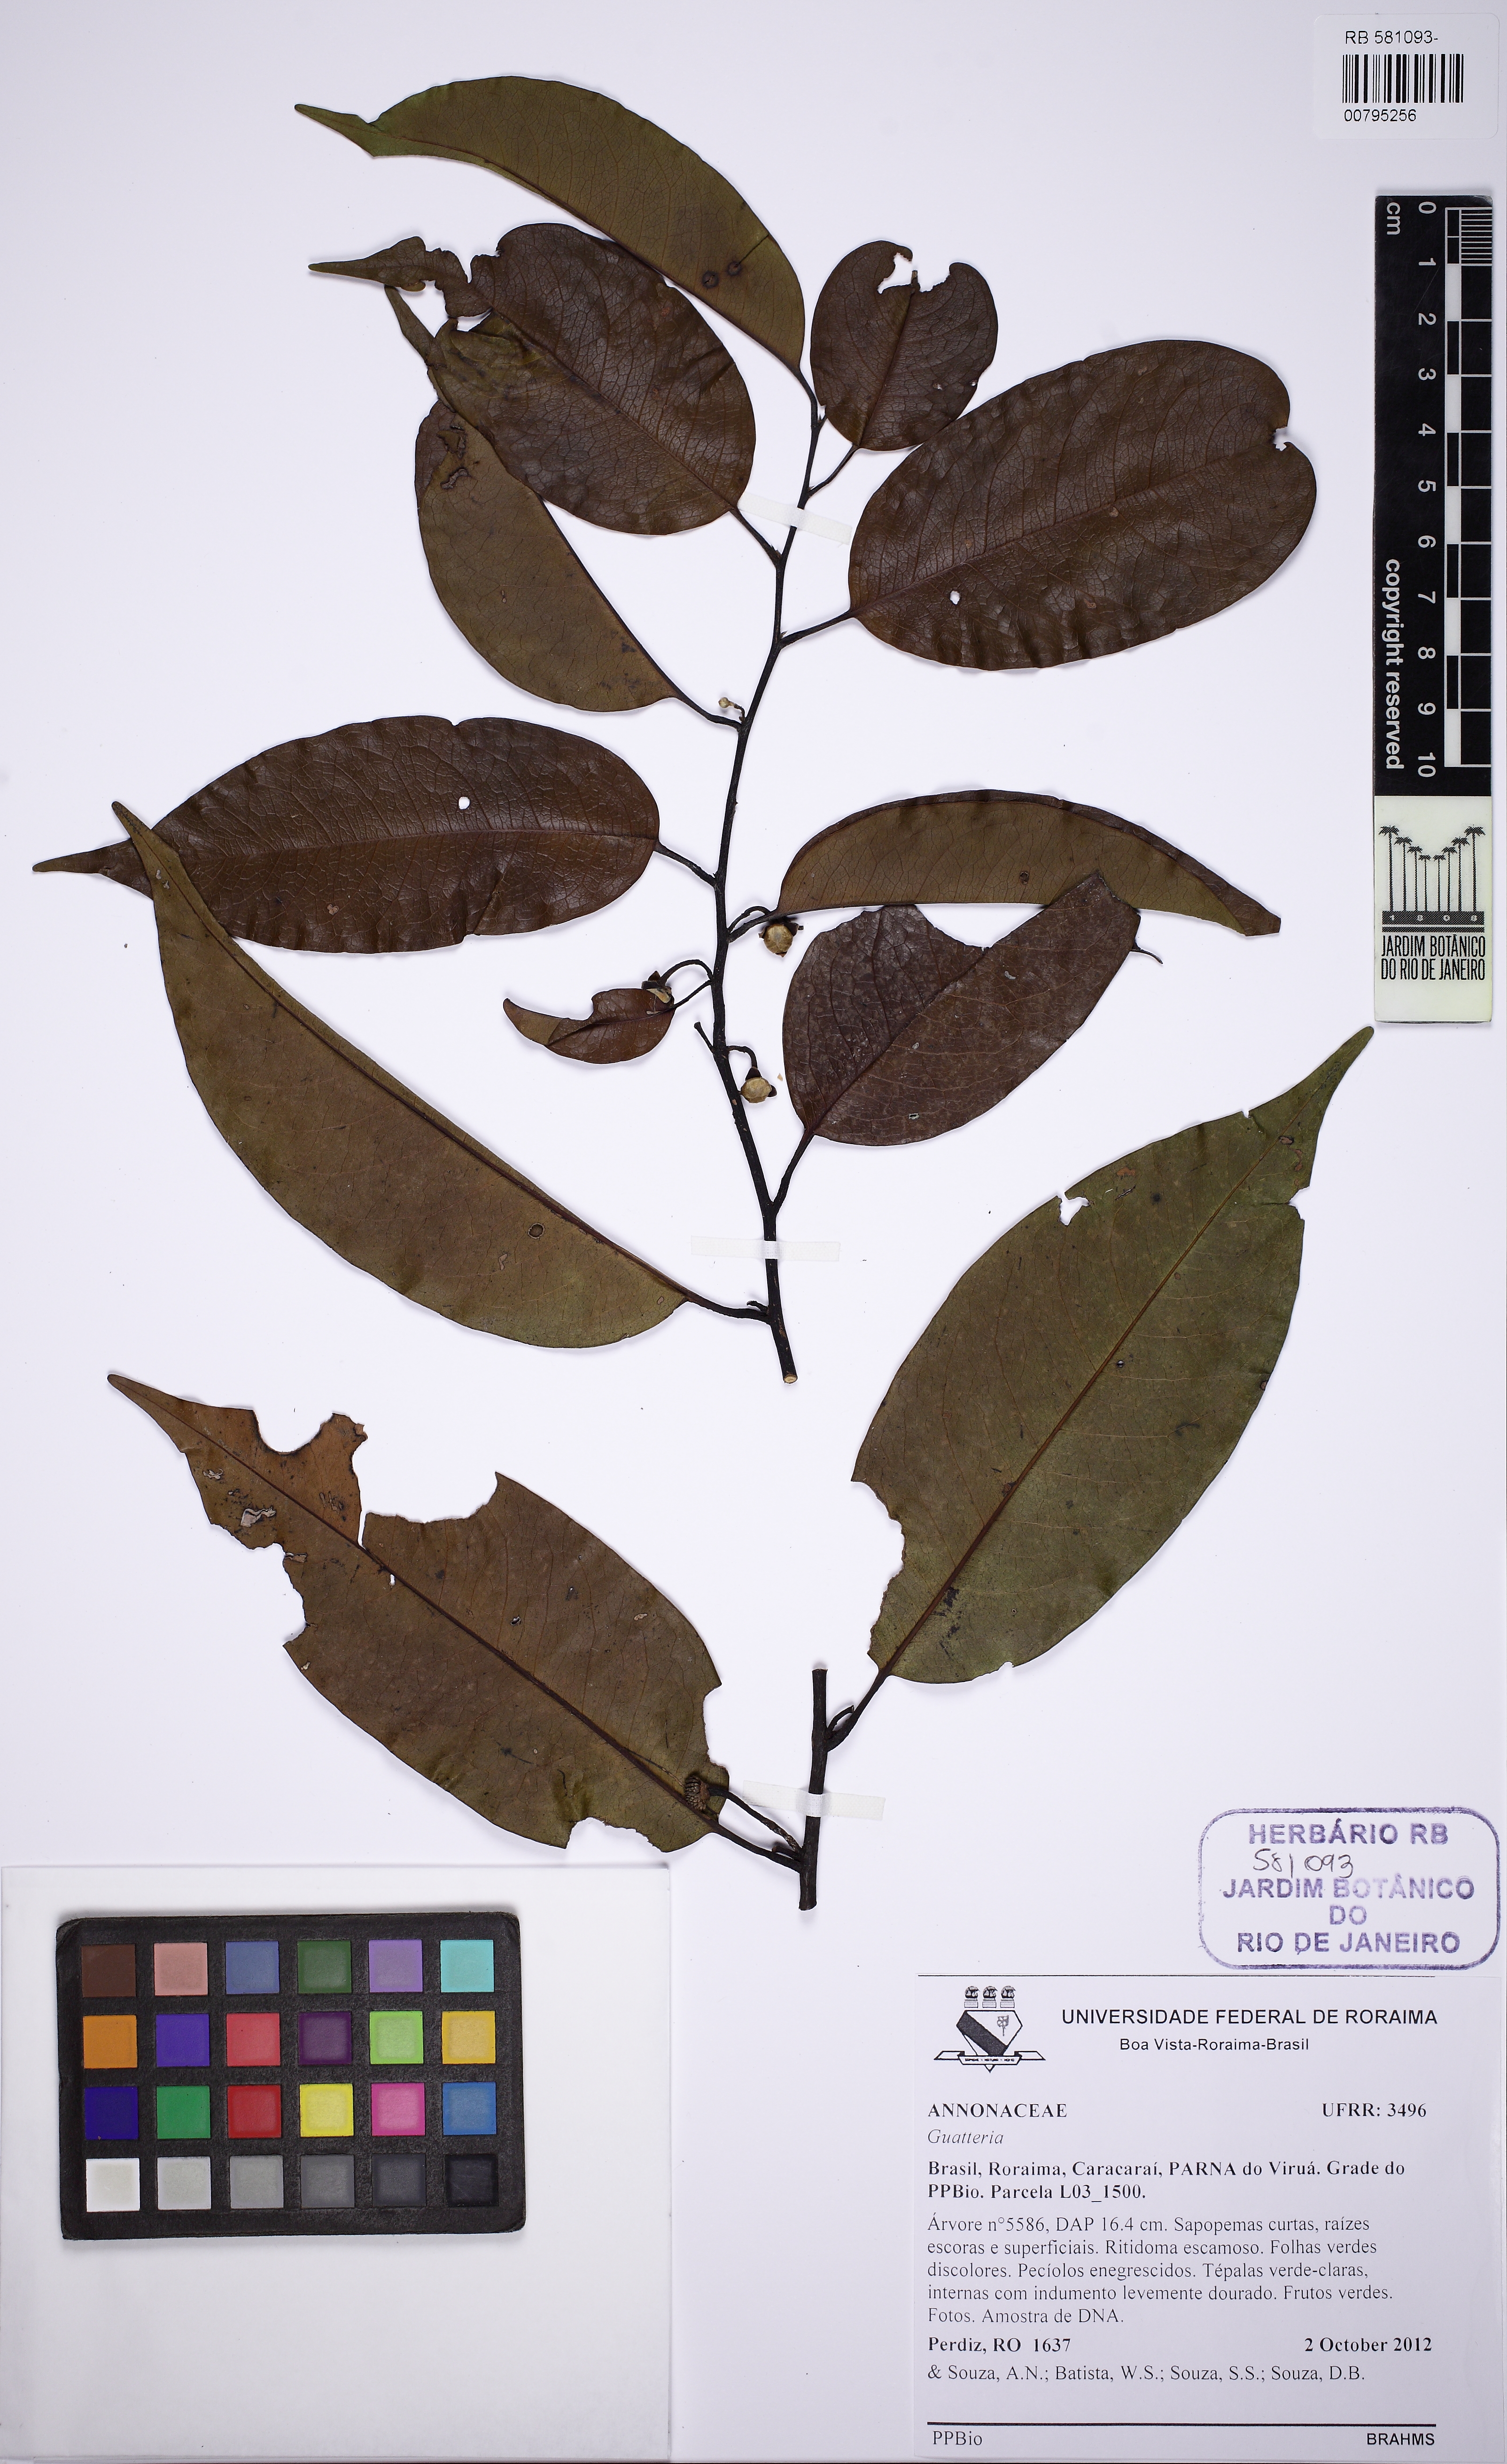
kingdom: Plantae
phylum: Tracheophyta
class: Magnoliopsida
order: Magnoliales
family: Annonaceae
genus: Guatteria
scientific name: Guatteria
